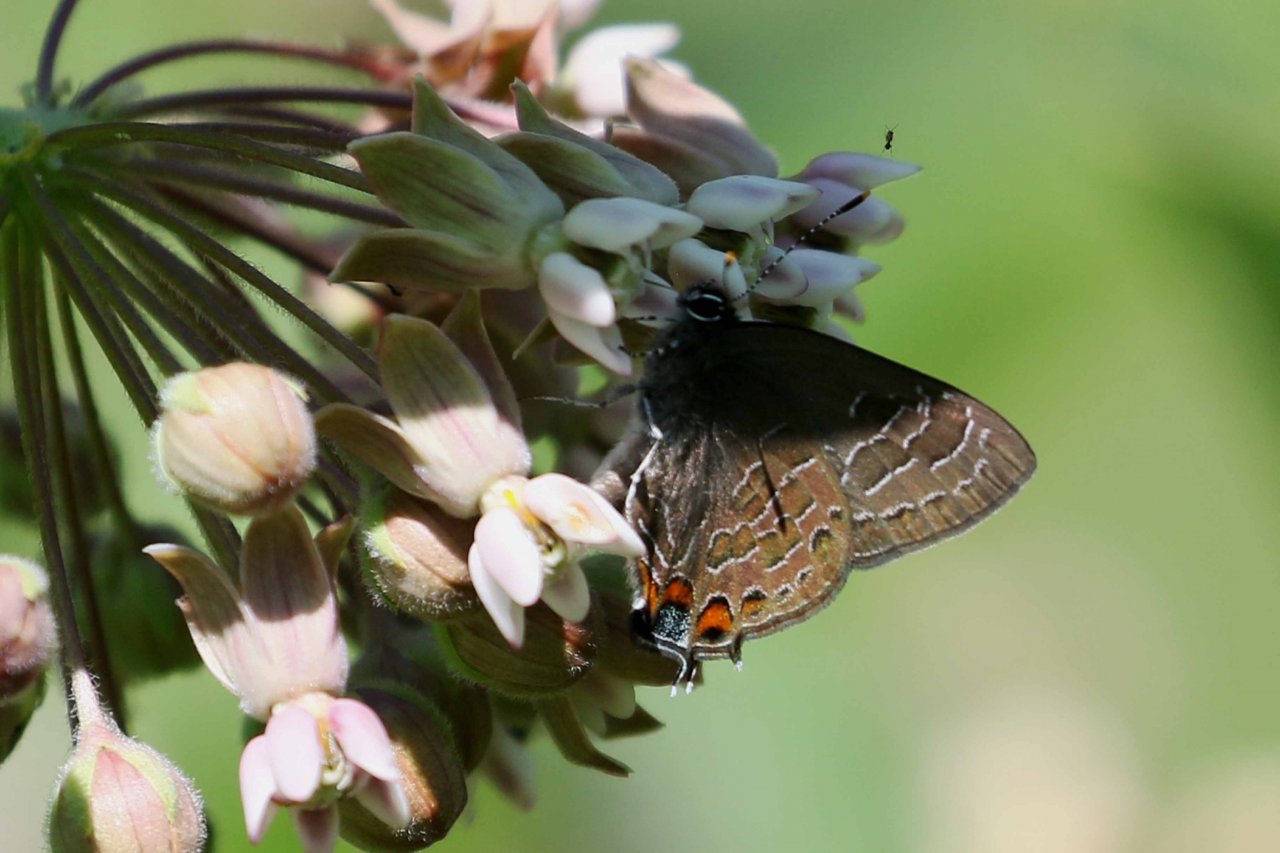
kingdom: Animalia
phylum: Arthropoda
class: Insecta
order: Lepidoptera
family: Lycaenidae
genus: Satyrium
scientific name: Satyrium liparops
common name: Striped Hairstreak
